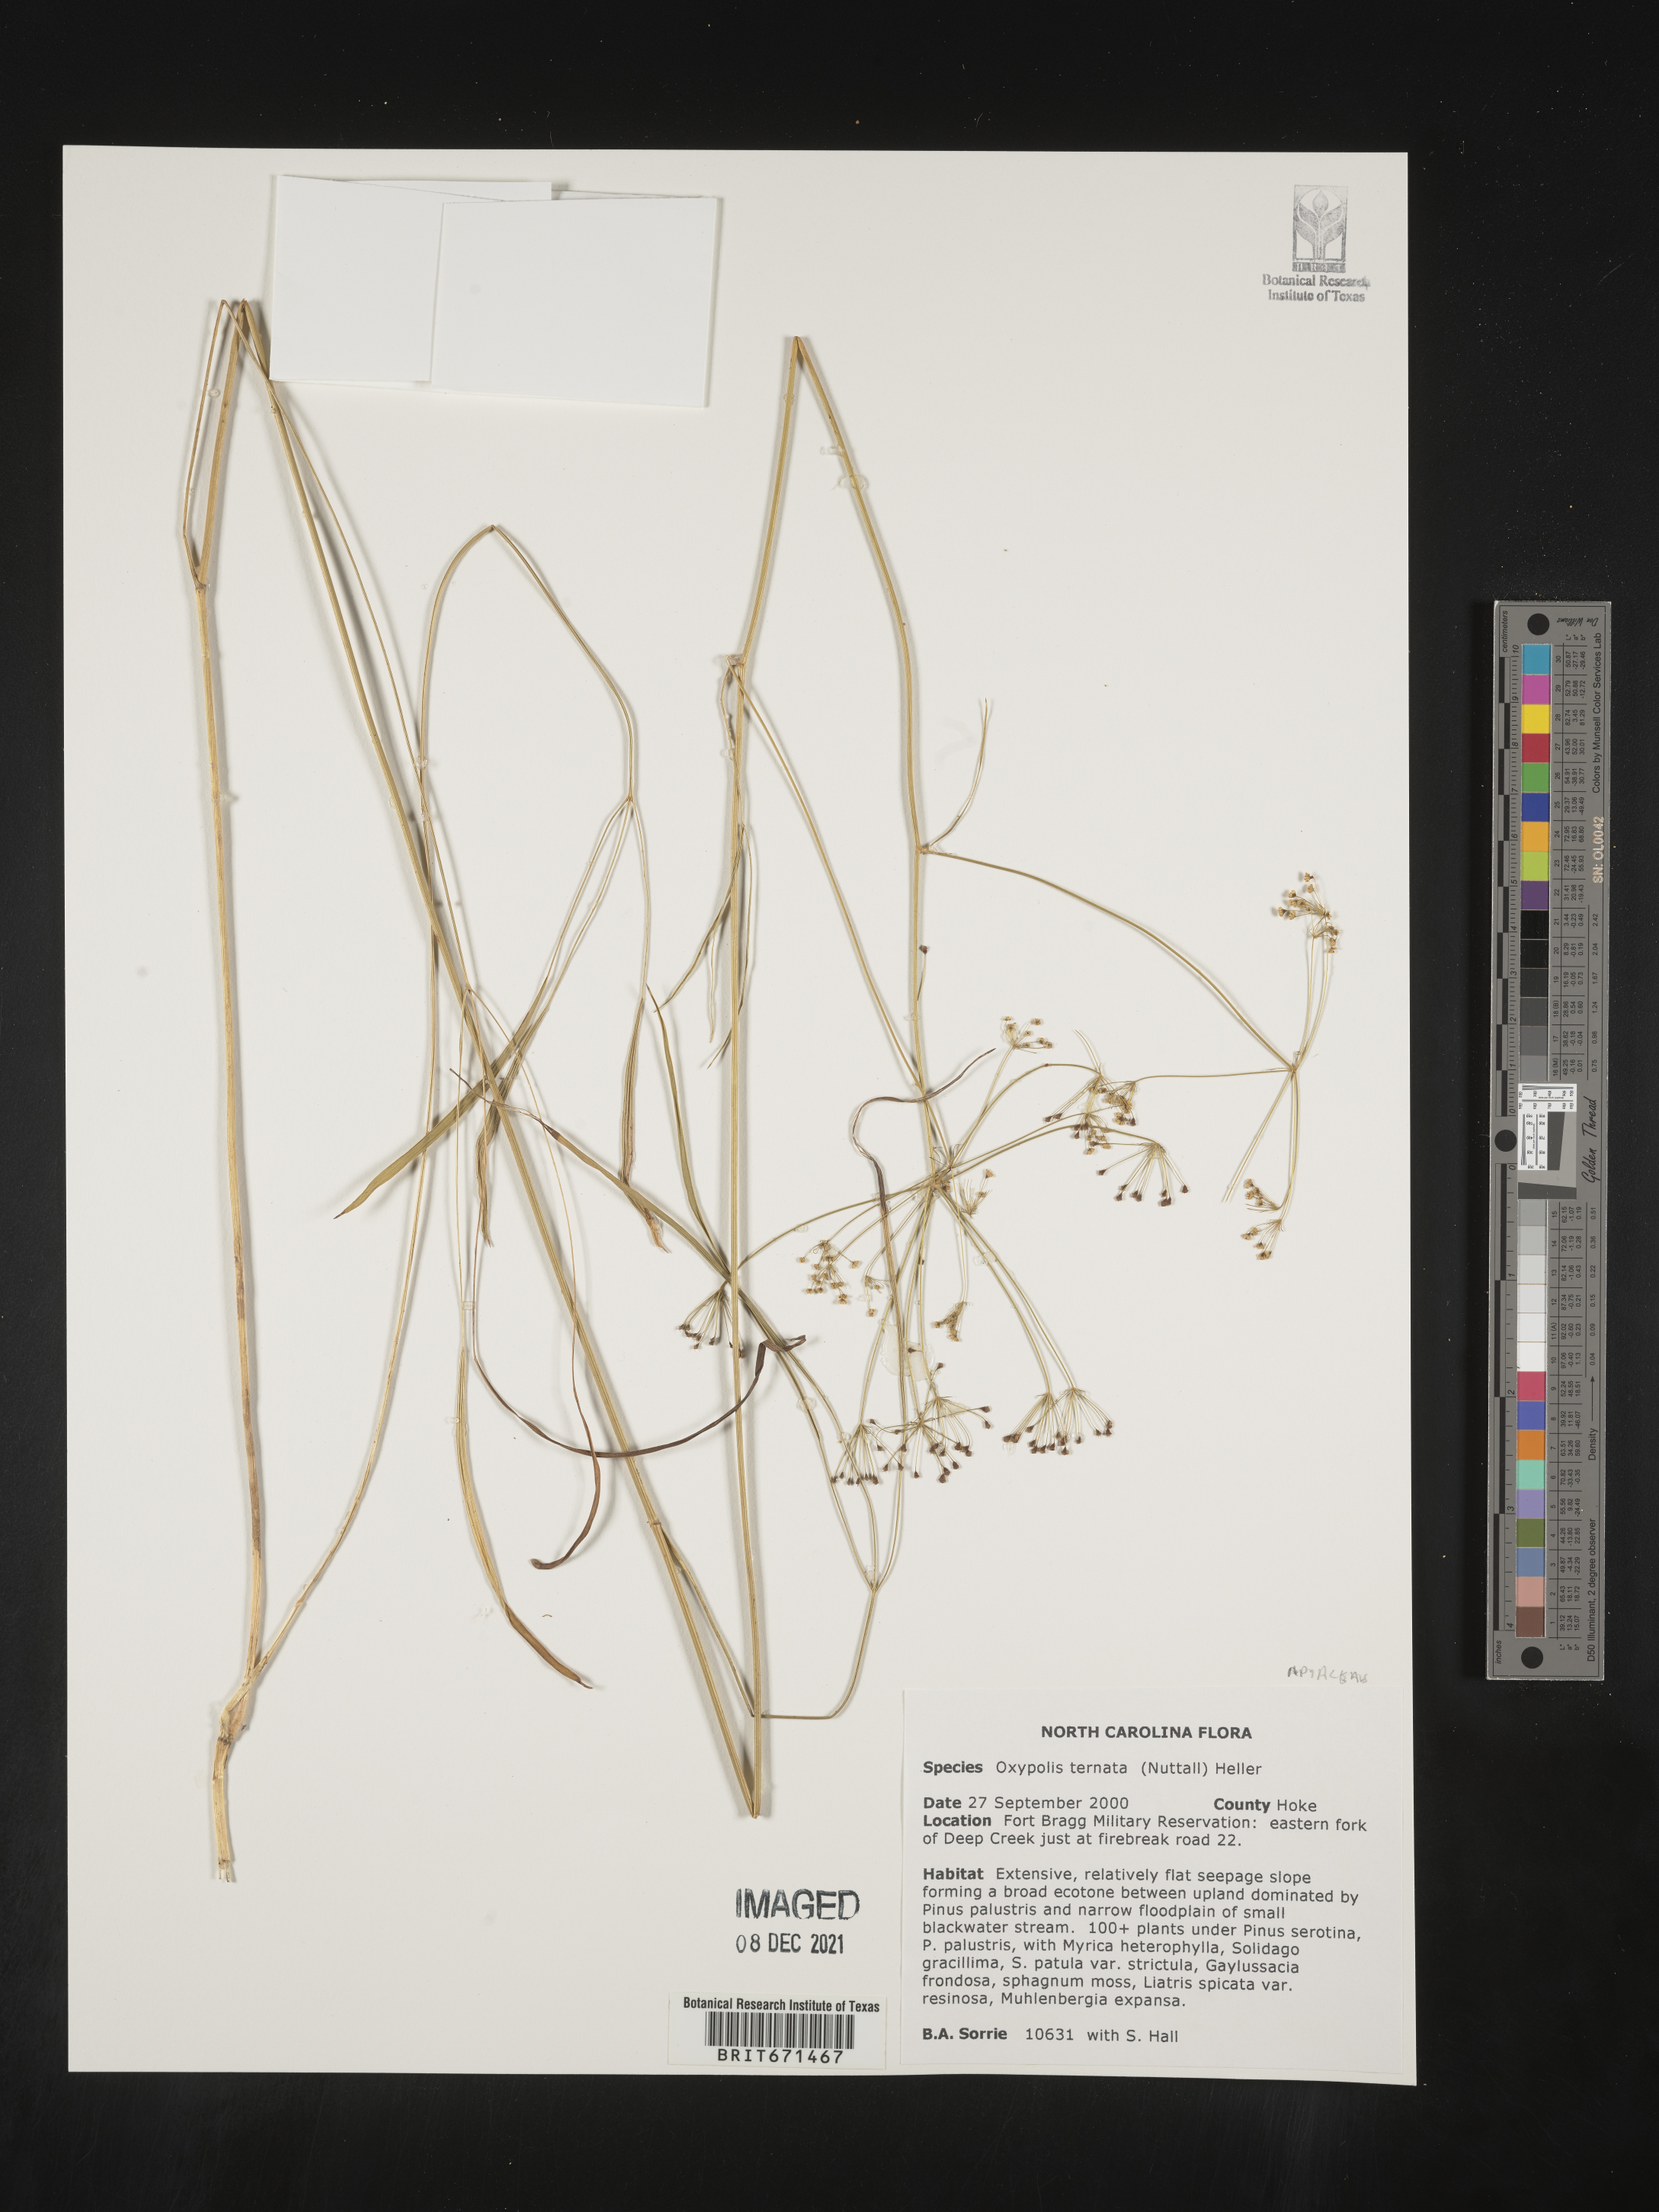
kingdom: Plantae
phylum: Tracheophyta
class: Magnoliopsida
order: Apiales
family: Apiaceae
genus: Oxypolis
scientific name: Oxypolis ternata
